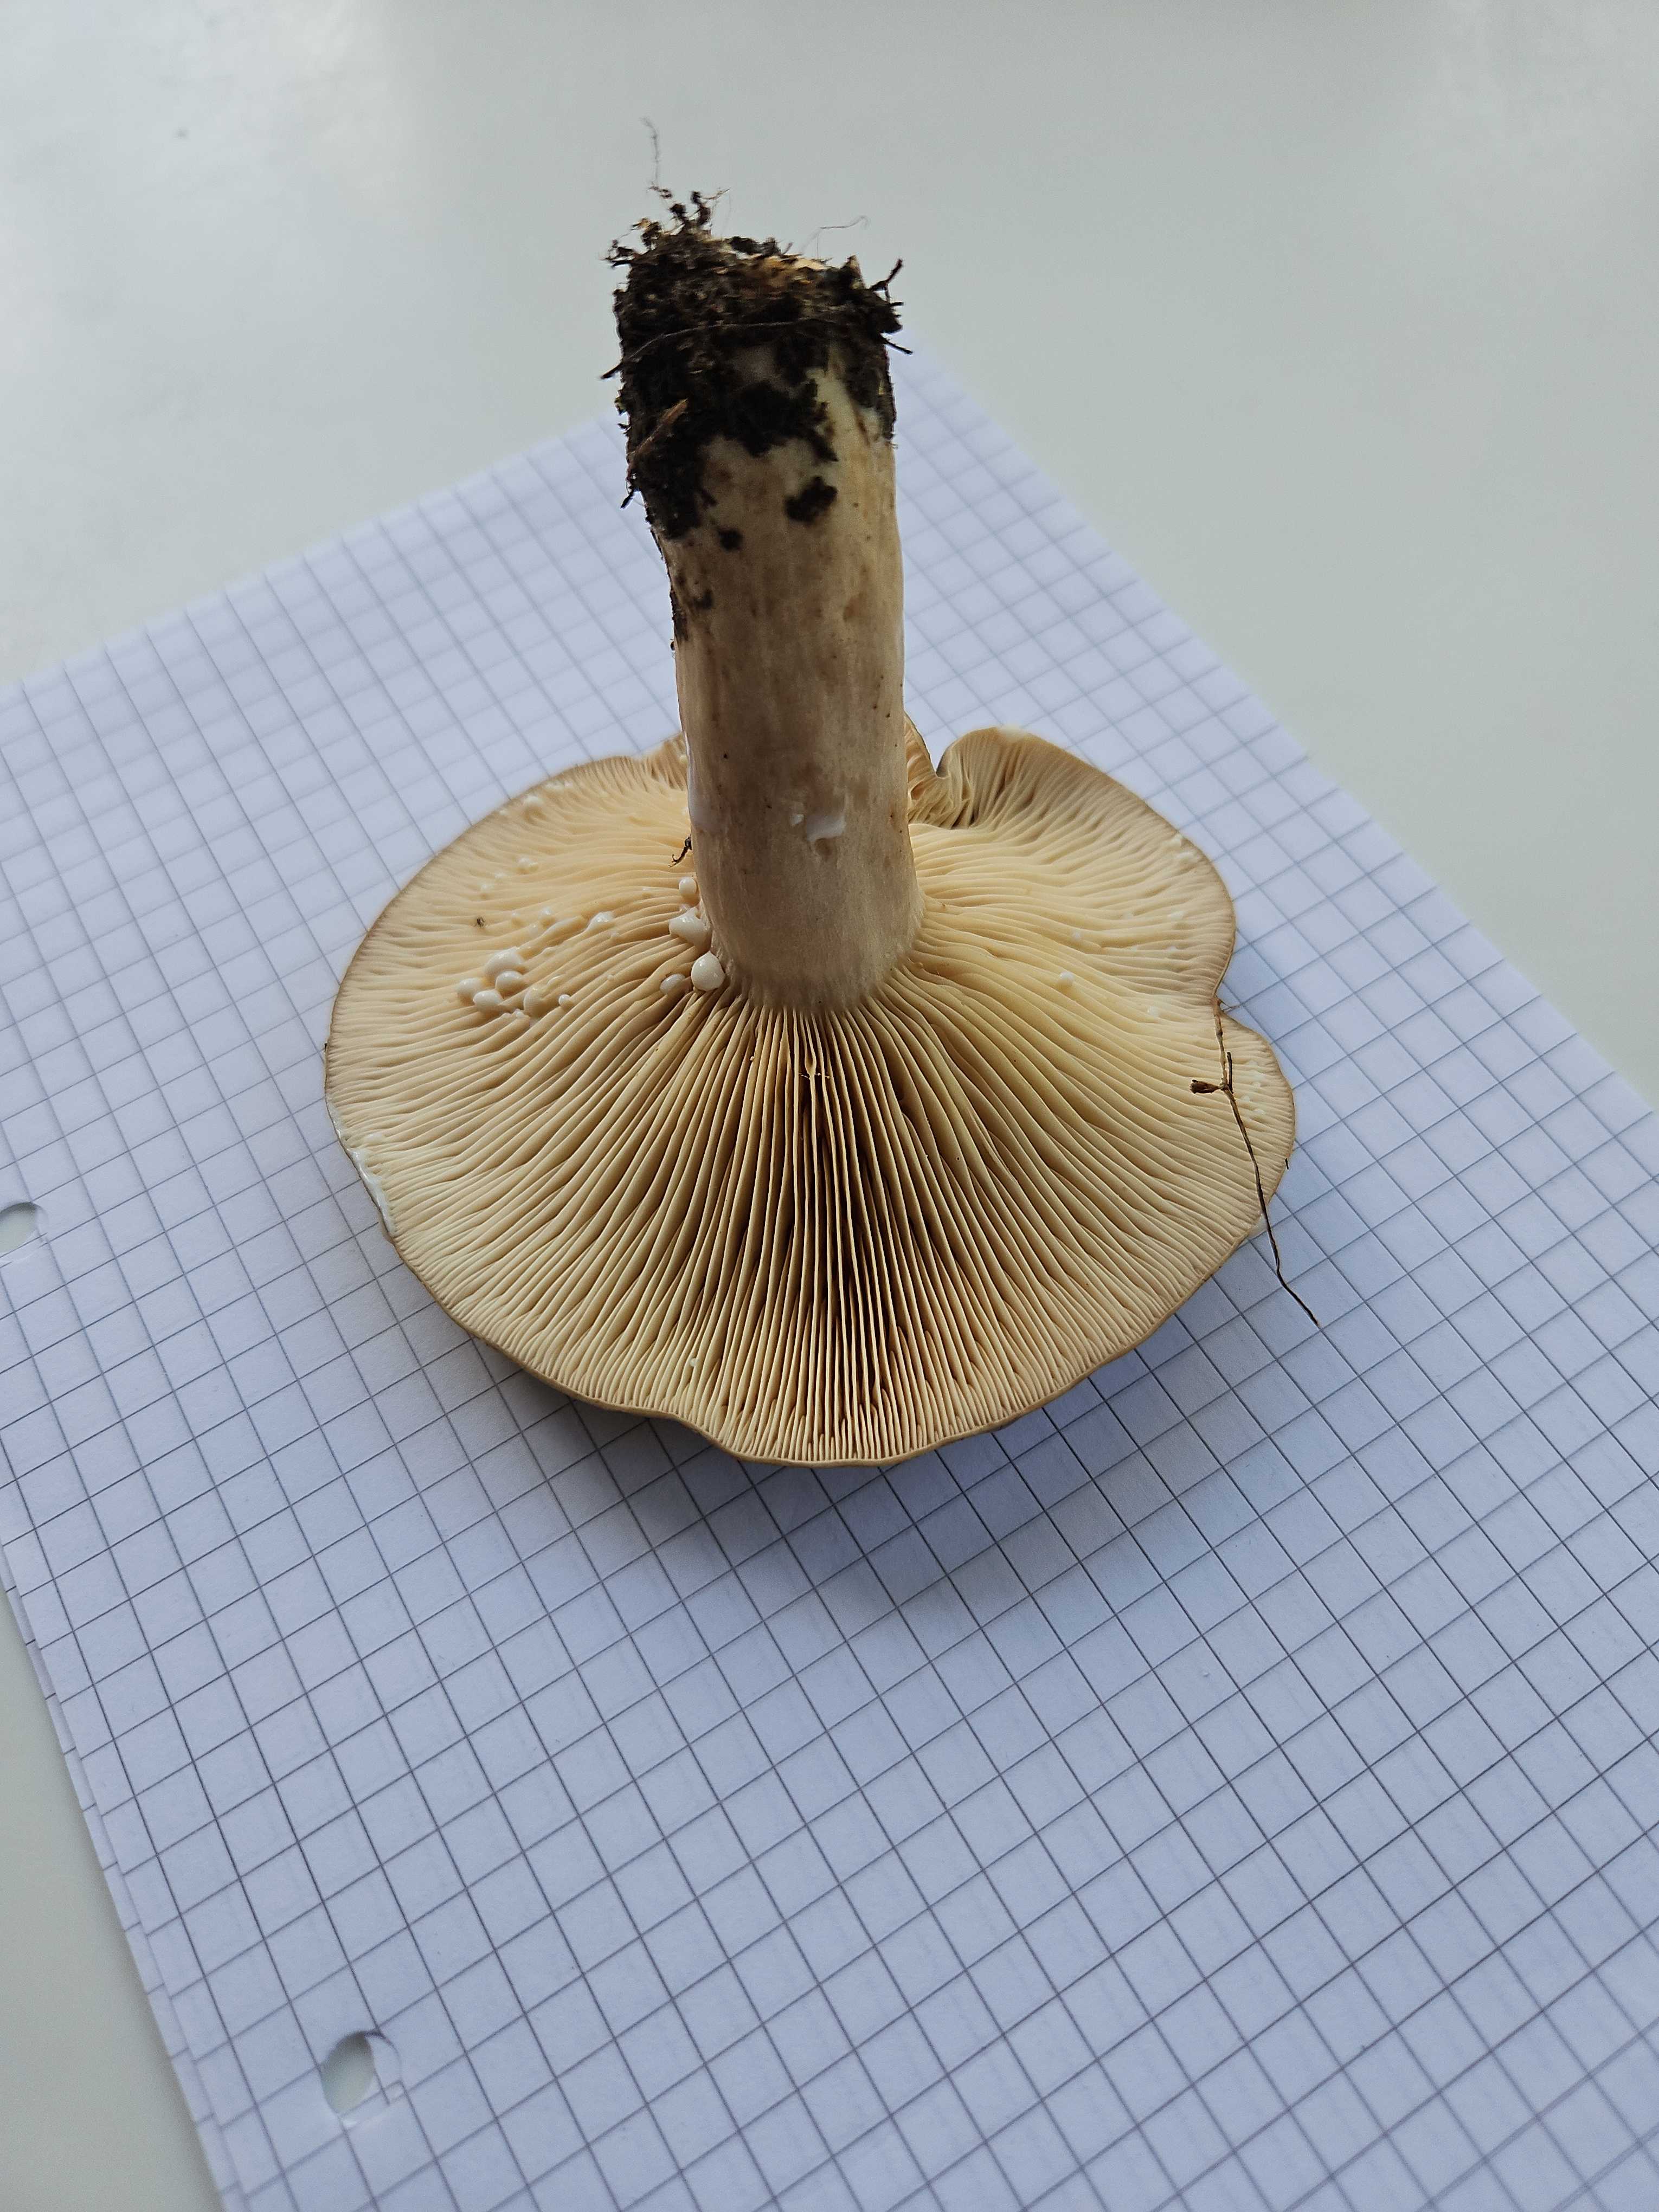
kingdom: Fungi
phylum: Basidiomycota
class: Agaricomycetes
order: Russulales
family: Russulaceae
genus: Lactarius
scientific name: Lactarius circellatus
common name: avnbøg-mælkehat
